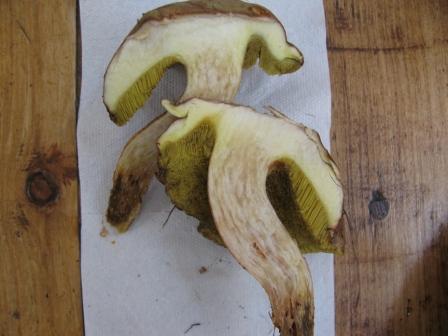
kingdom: Fungi
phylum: Basidiomycota
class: Agaricomycetes
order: Boletales
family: Boletaceae
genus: Xerocomus
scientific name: Xerocomus ferrugineus
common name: vaskeskinds-rørhat
